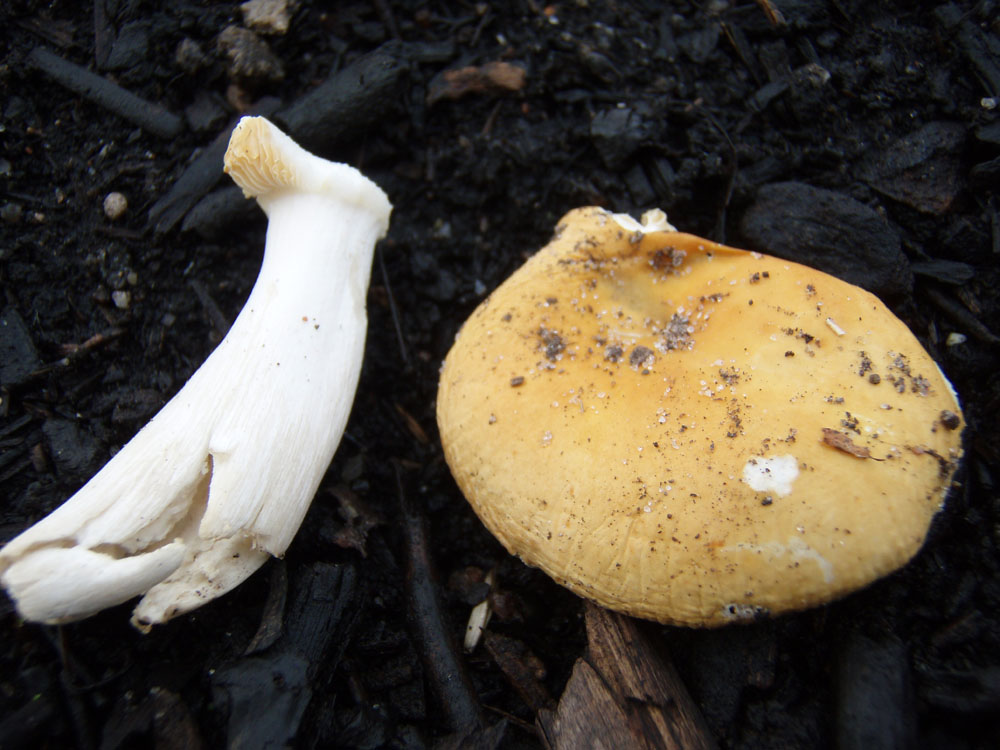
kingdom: Fungi
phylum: Basidiomycota
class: Agaricomycetes
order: Russulales
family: Russulaceae
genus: Russula
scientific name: Russula risigallina
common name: abrikos-skørhat
